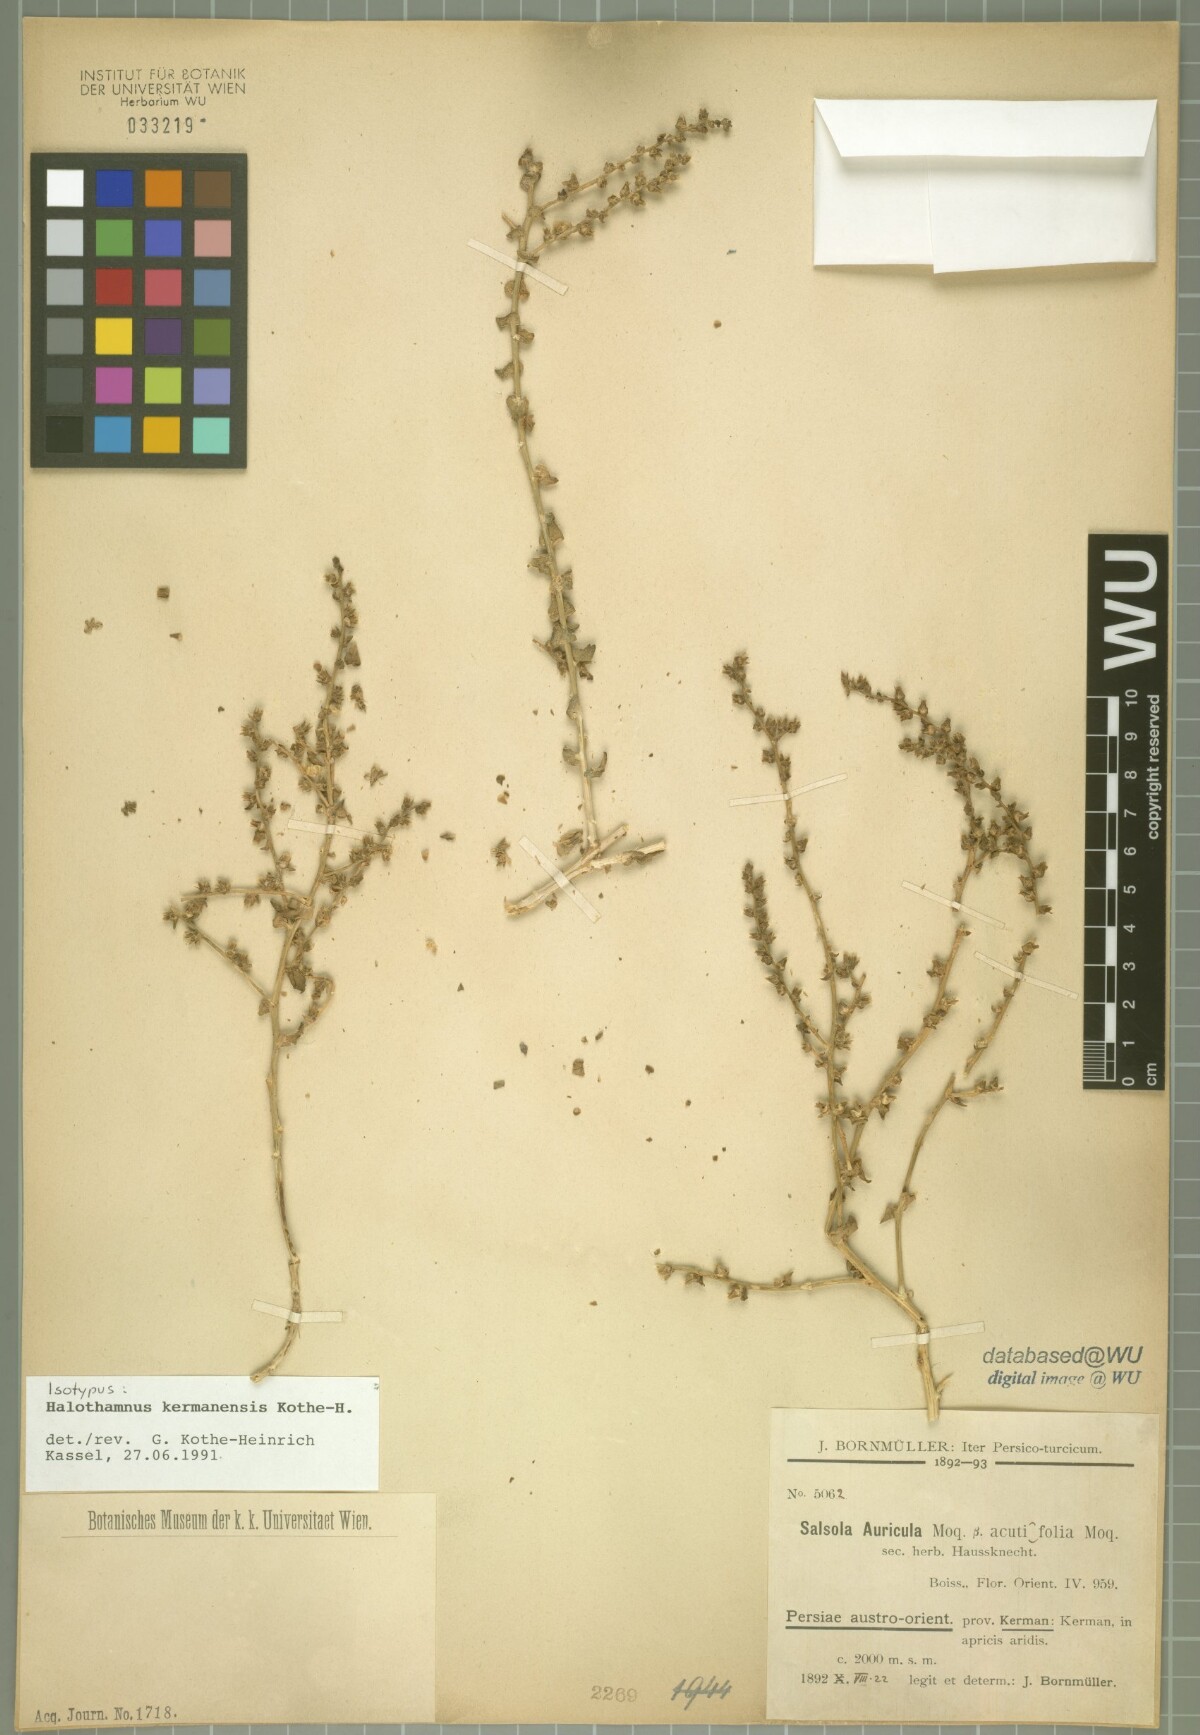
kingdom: Plantae
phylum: Tracheophyta
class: Magnoliopsida
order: Caryophyllales
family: Amaranthaceae
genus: Halothamnus
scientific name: Halothamnus kermanensis
